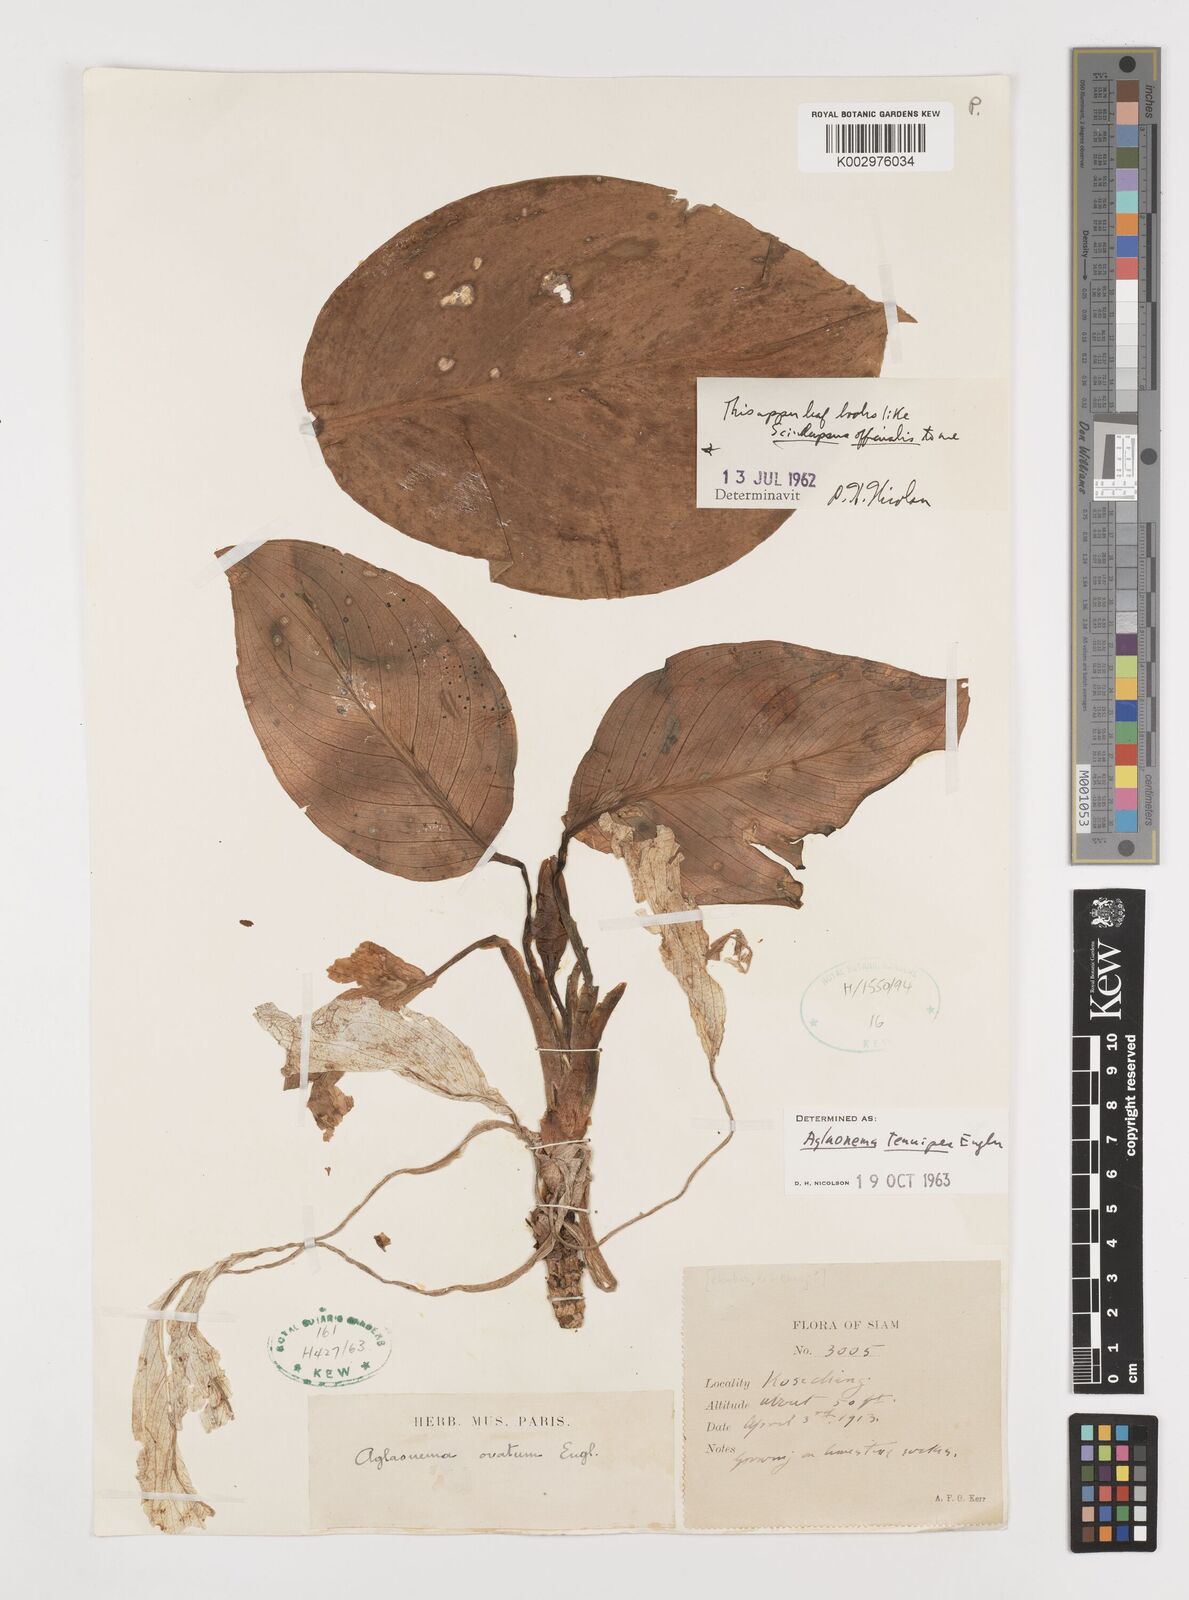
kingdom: Plantae
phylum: Tracheophyta
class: Liliopsida
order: Alismatales
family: Araceae
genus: Aglaonema
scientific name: Aglaonema simplex
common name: Malayan-sword
